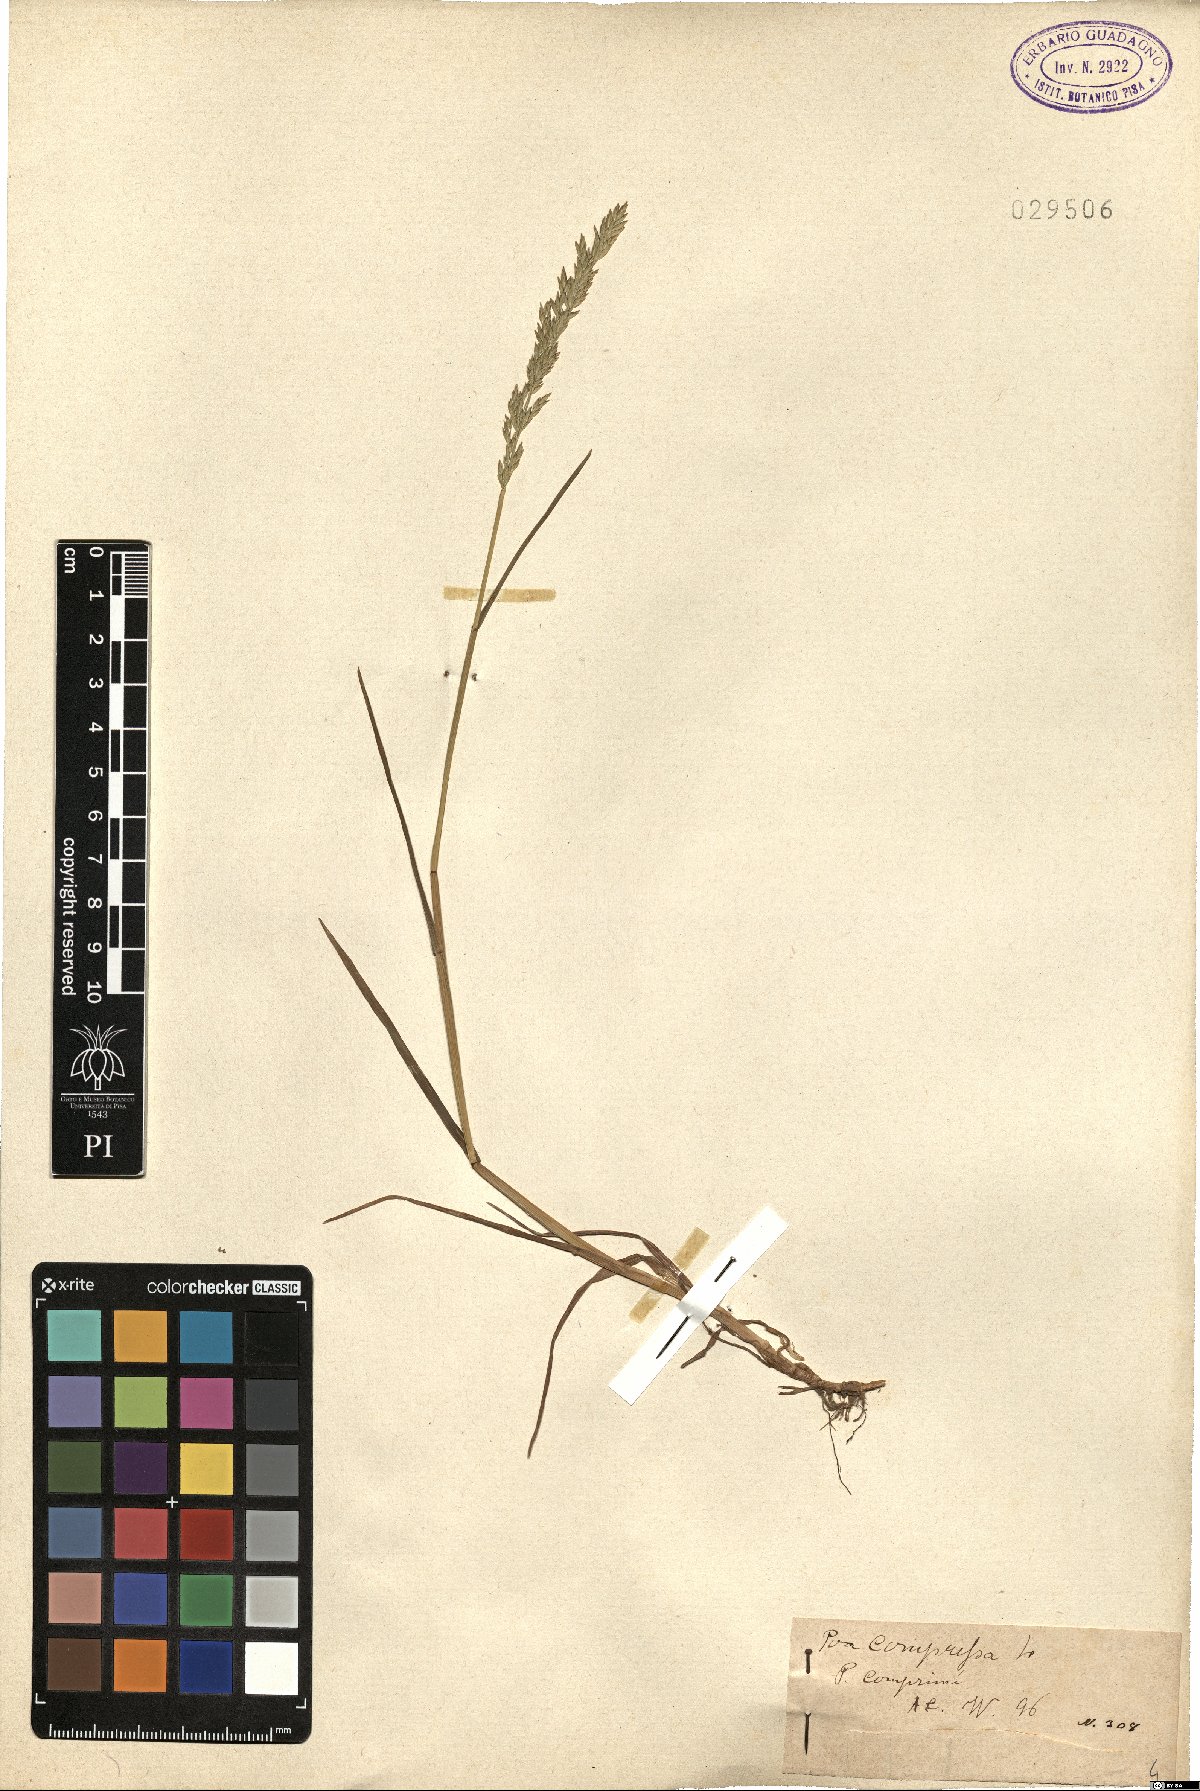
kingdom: Plantae
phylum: Tracheophyta
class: Liliopsida
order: Poales
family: Poaceae
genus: Poa
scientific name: Poa compressa
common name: Canada bluegrass
